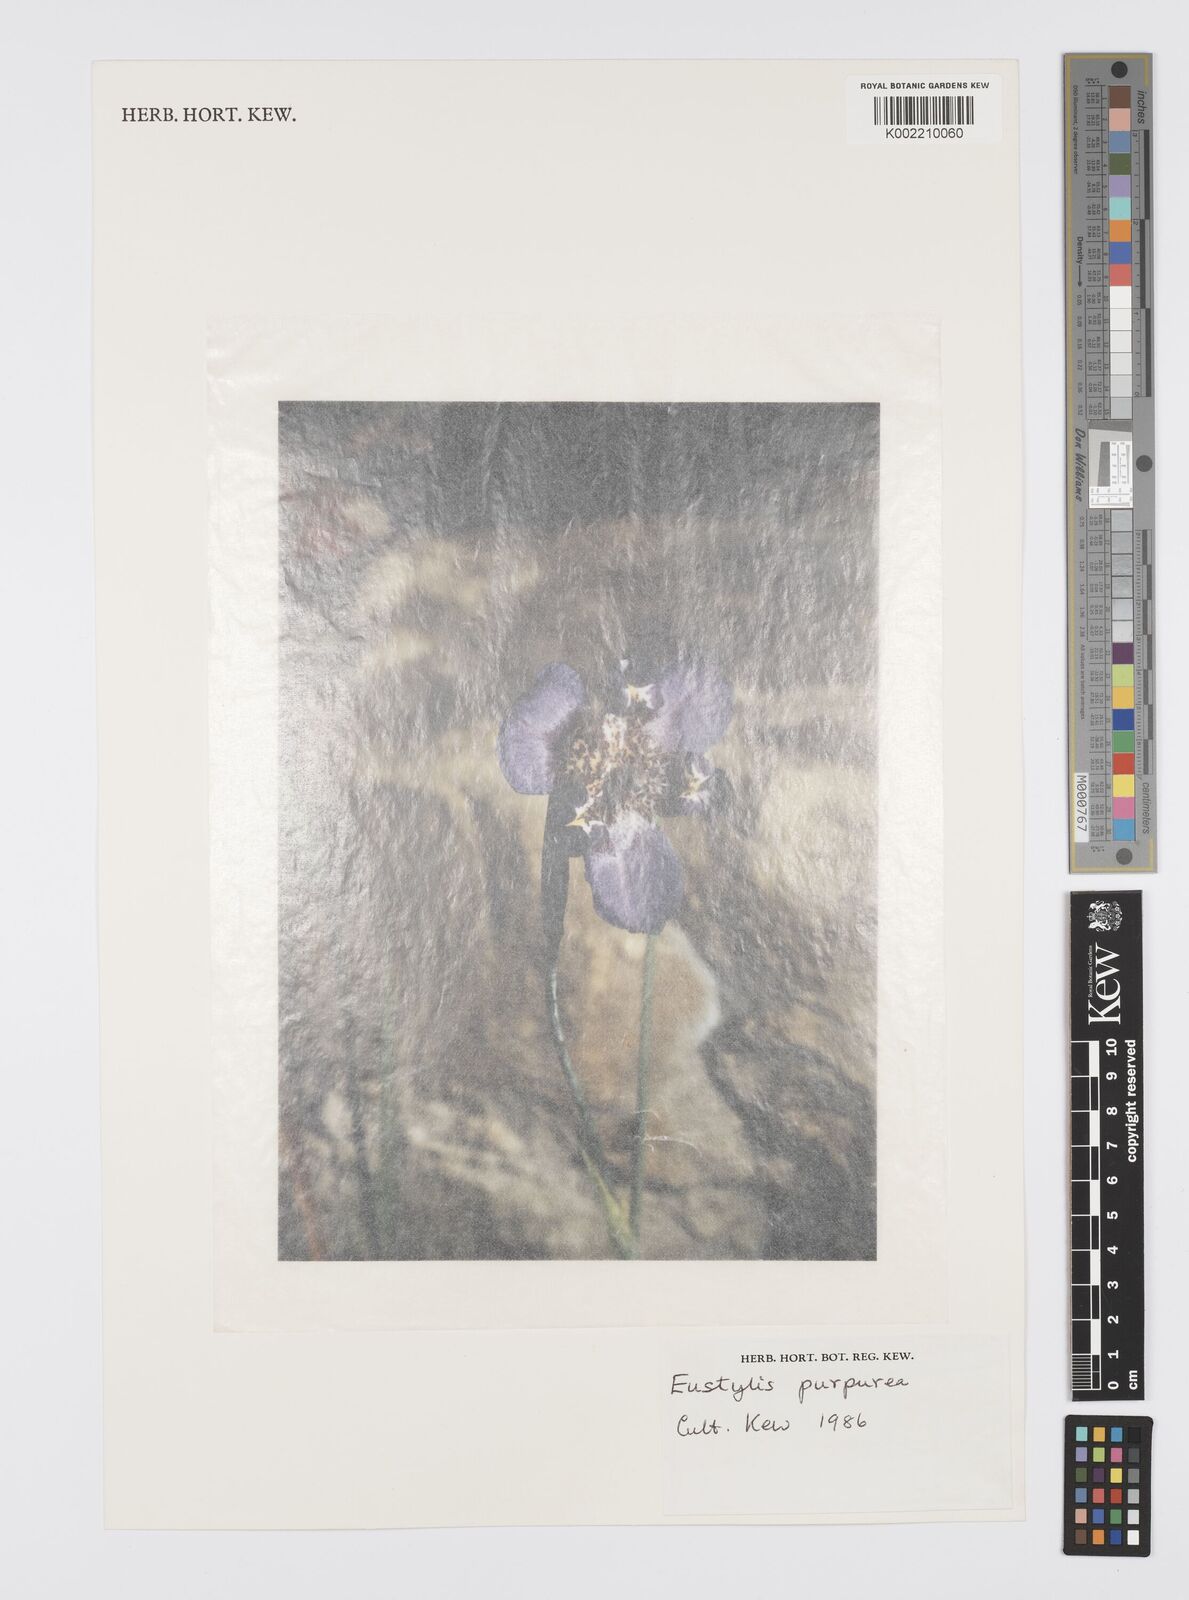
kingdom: Plantae
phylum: Tracheophyta
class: Liliopsida
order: Asparagales
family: Iridaceae
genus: Alophia
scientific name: Alophia drummondii
